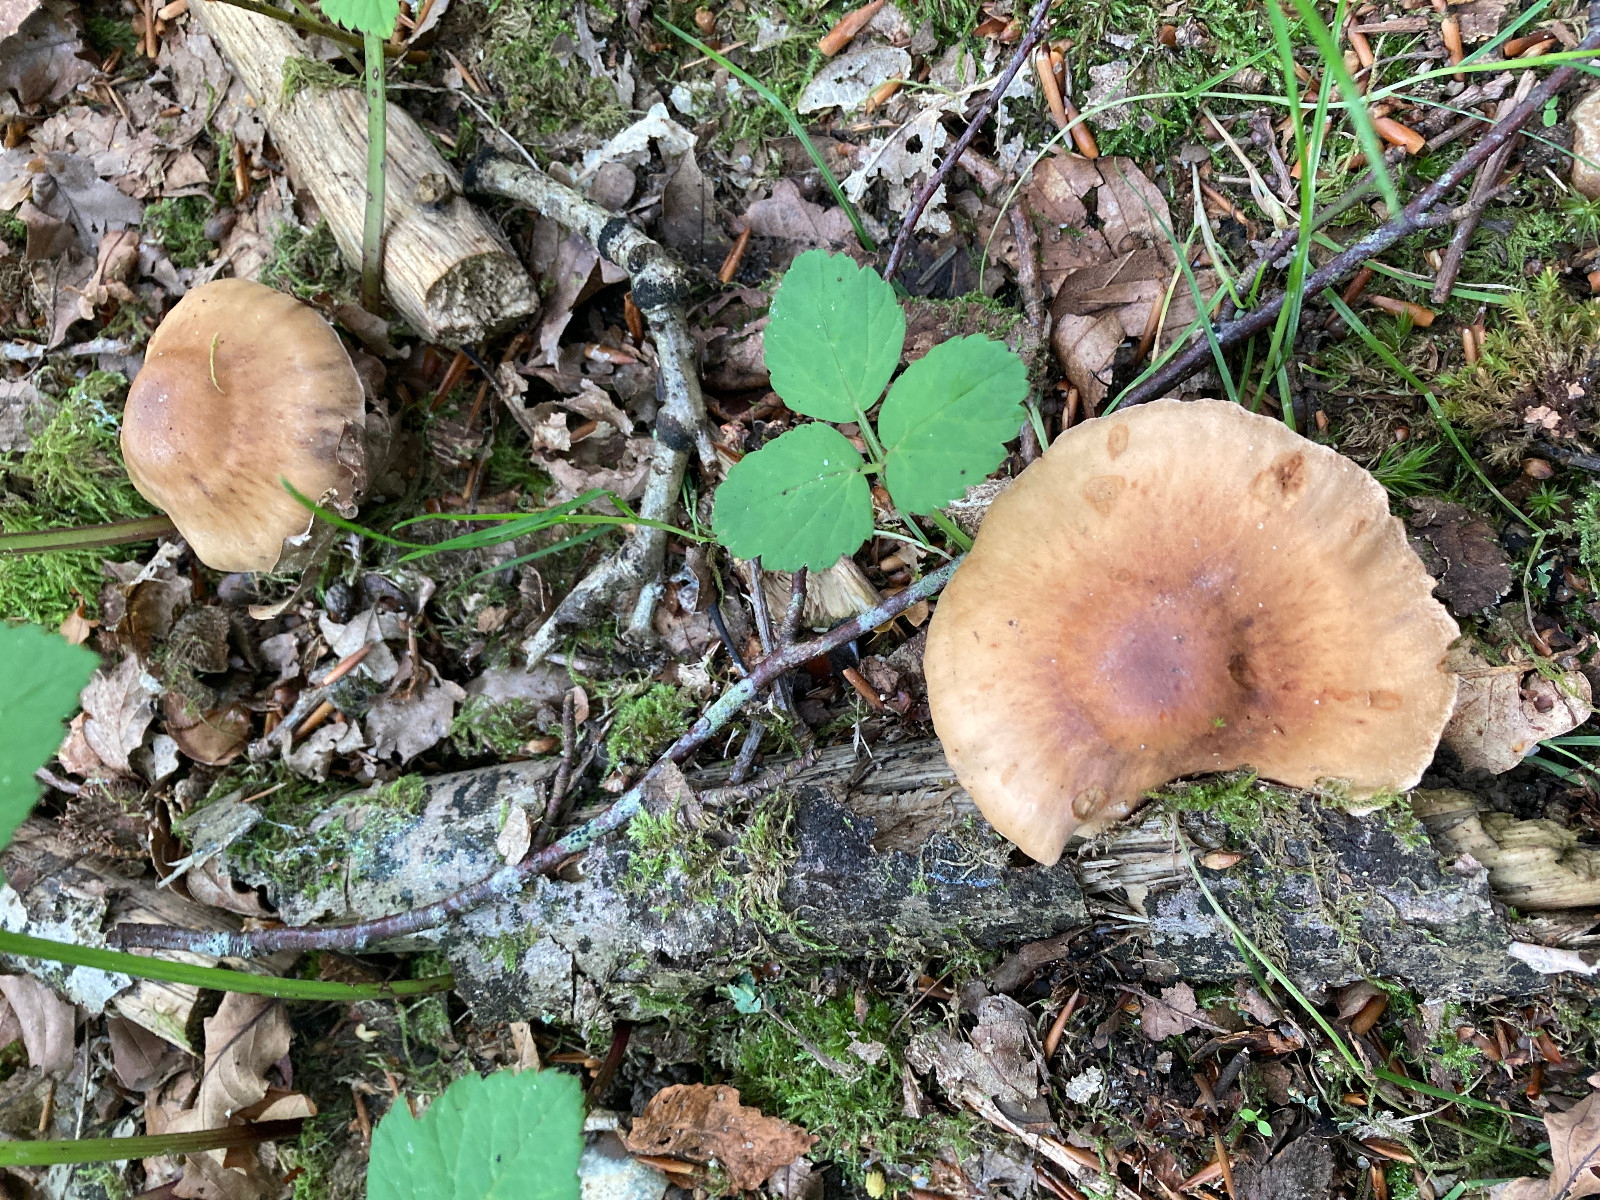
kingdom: Fungi
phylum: Basidiomycota
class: Agaricomycetes
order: Agaricales
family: Cortinariaceae
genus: Cortinarius
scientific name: Cortinarius
